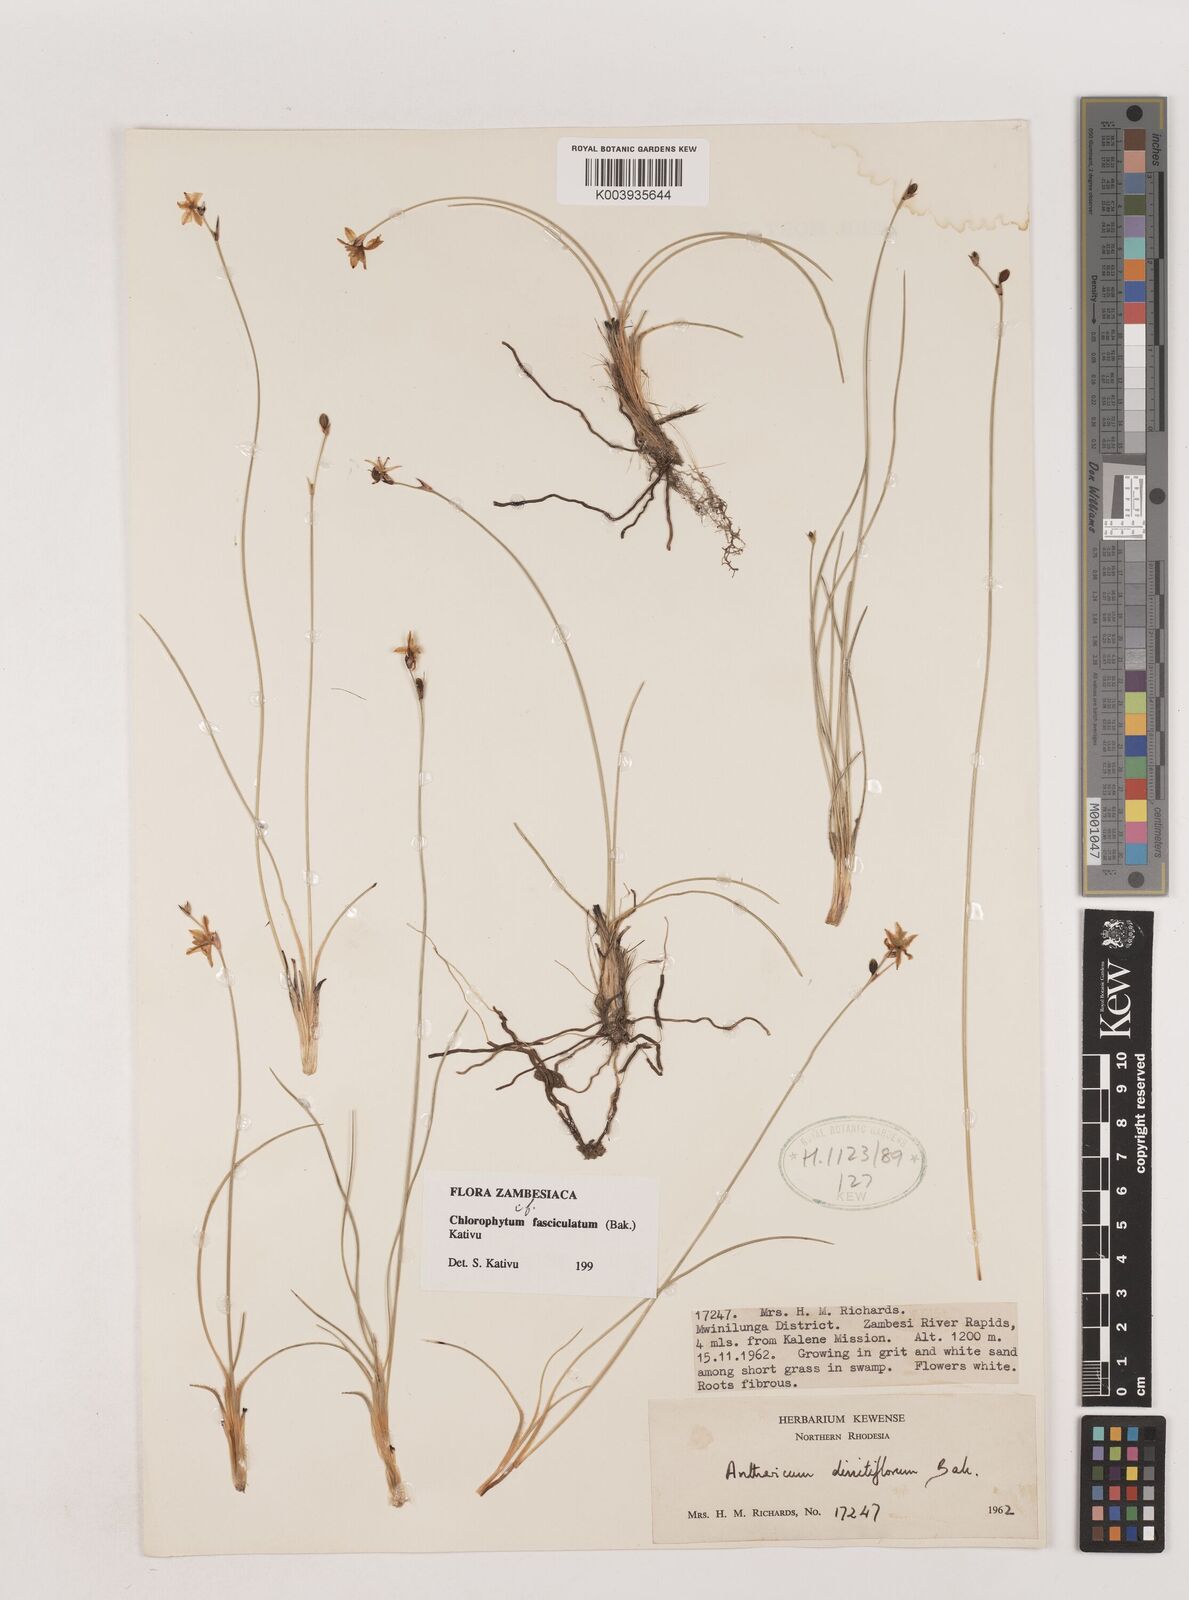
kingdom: Plantae
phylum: Tracheophyta
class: Liliopsida
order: Asparagales
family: Asparagaceae
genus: Chlorophytum
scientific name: Chlorophytum sphagnicola
